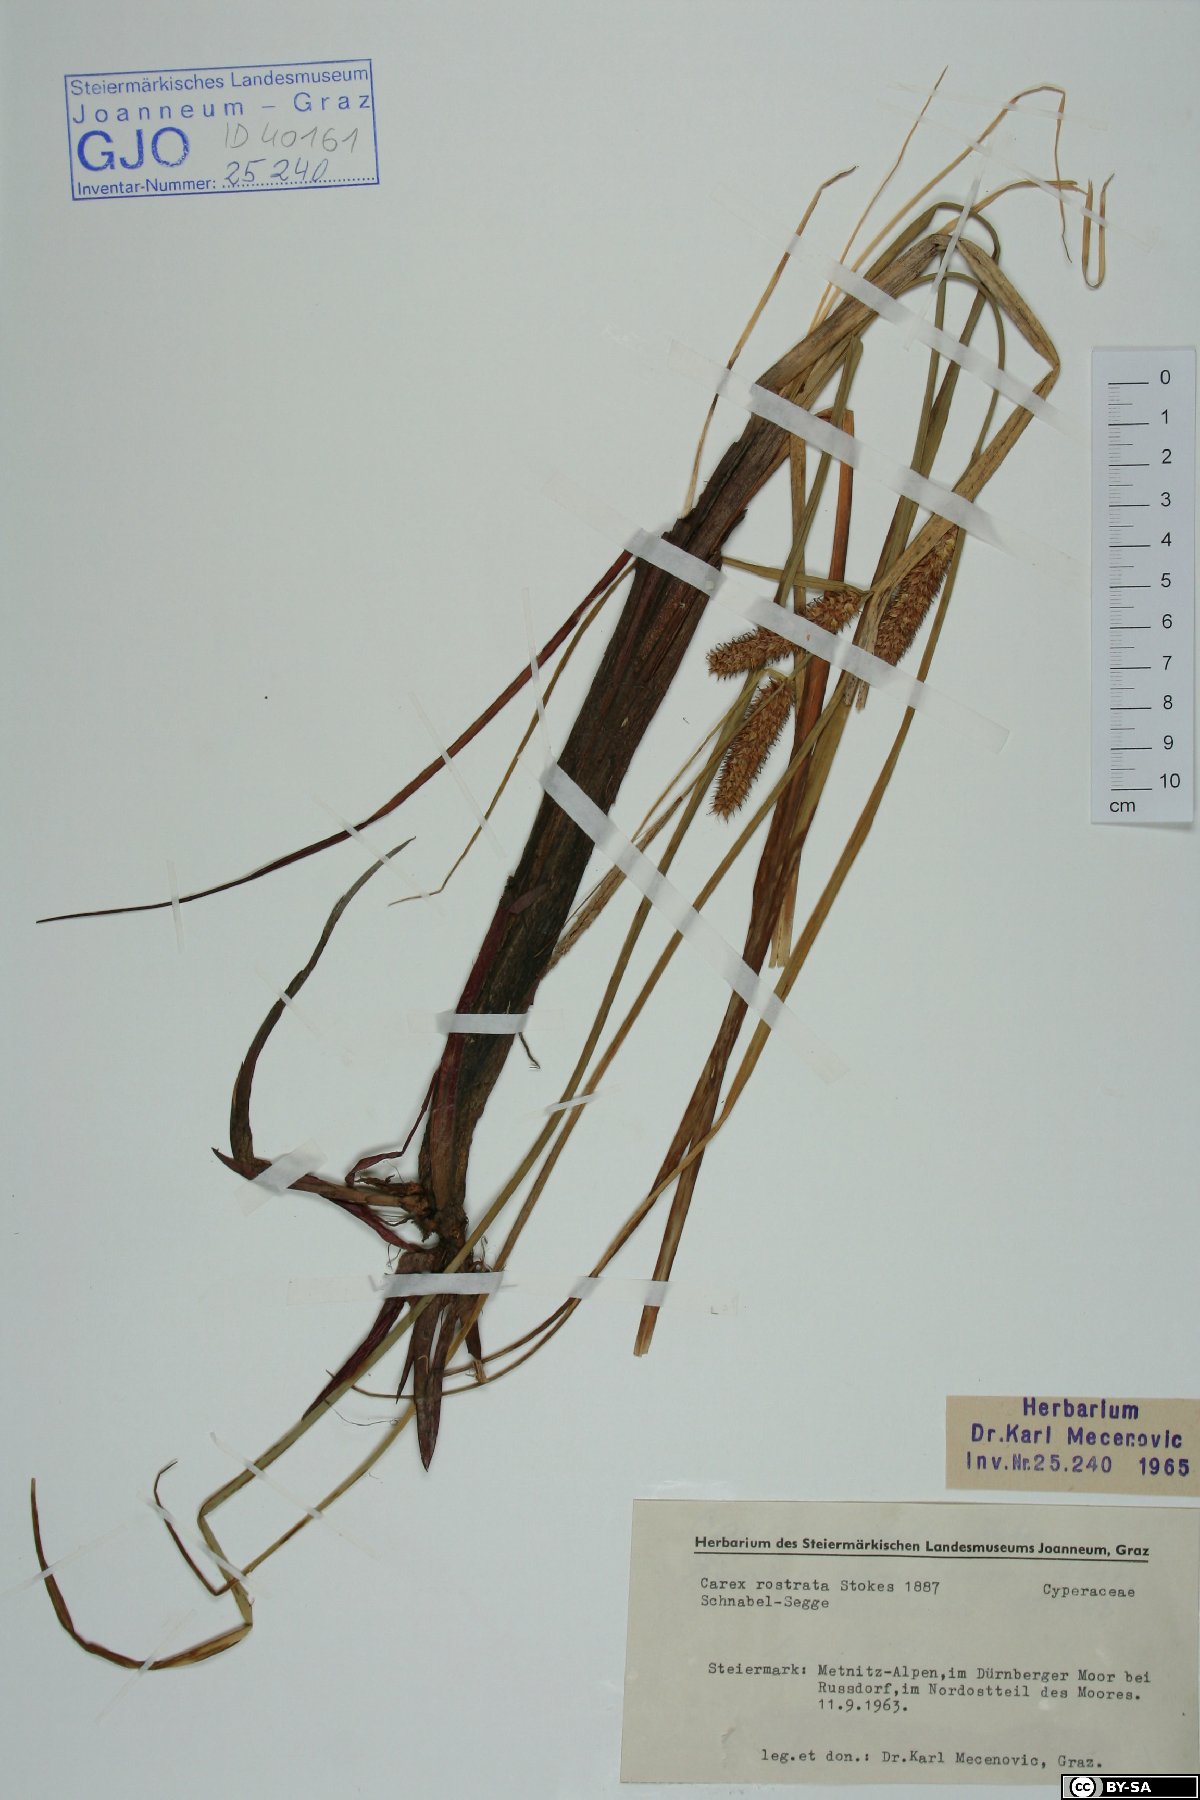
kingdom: Plantae
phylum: Tracheophyta
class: Liliopsida
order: Poales
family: Cyperaceae
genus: Carex
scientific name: Carex rostrata
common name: Bottle sedge
